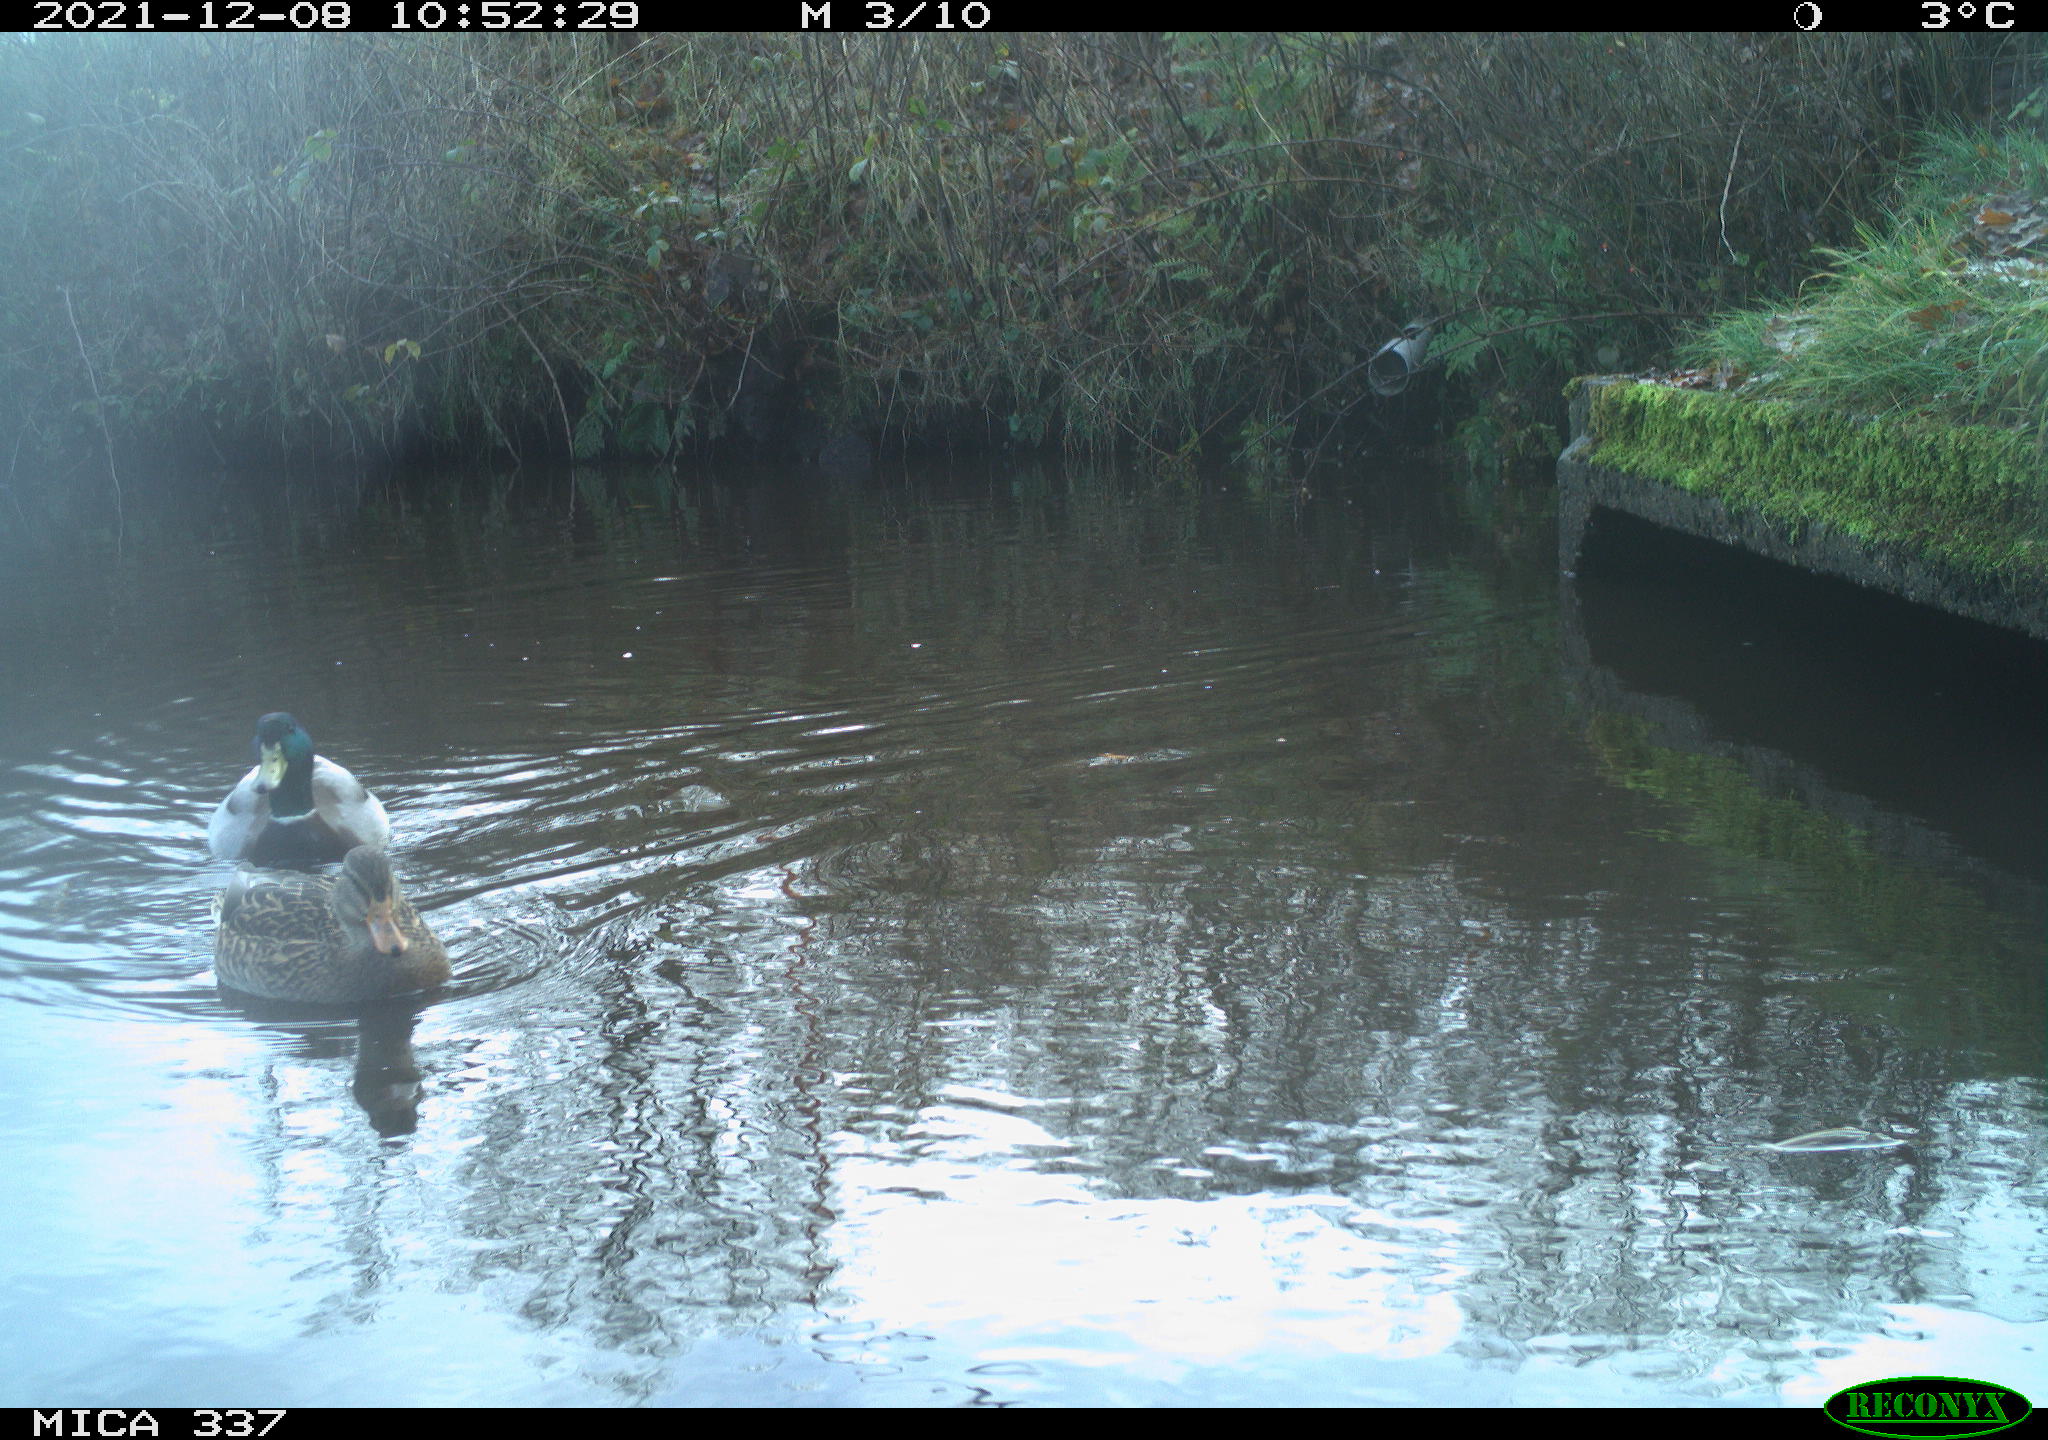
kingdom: Animalia
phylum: Chordata
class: Aves
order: Anseriformes
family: Anatidae
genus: Anas
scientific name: Anas platyrhynchos
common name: Mallard
